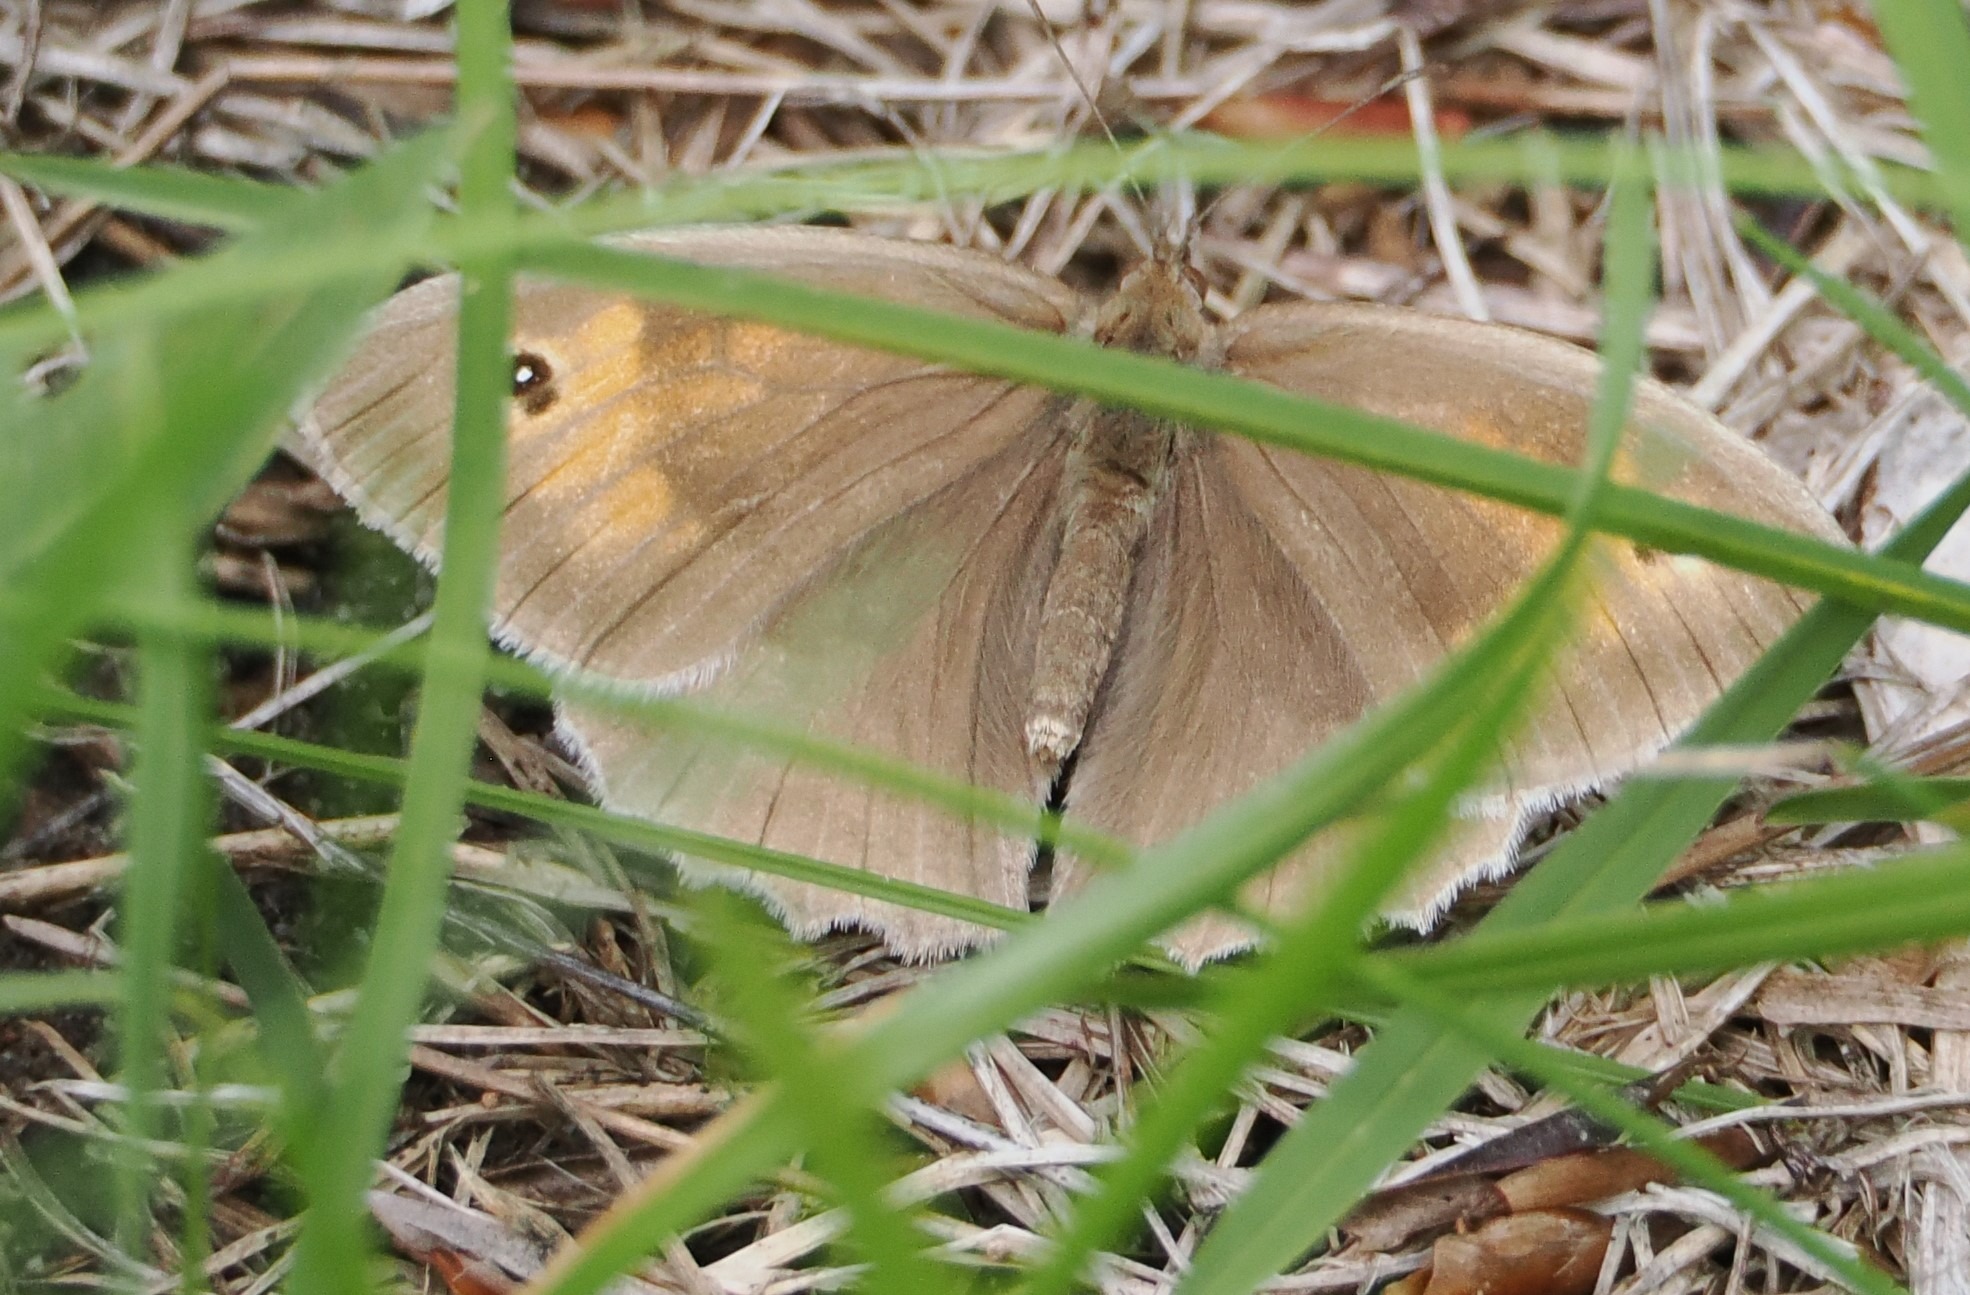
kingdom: Animalia
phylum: Arthropoda
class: Insecta
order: Lepidoptera
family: Nymphalidae
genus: Maniola
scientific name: Maniola jurtina
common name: Græsrandøje
